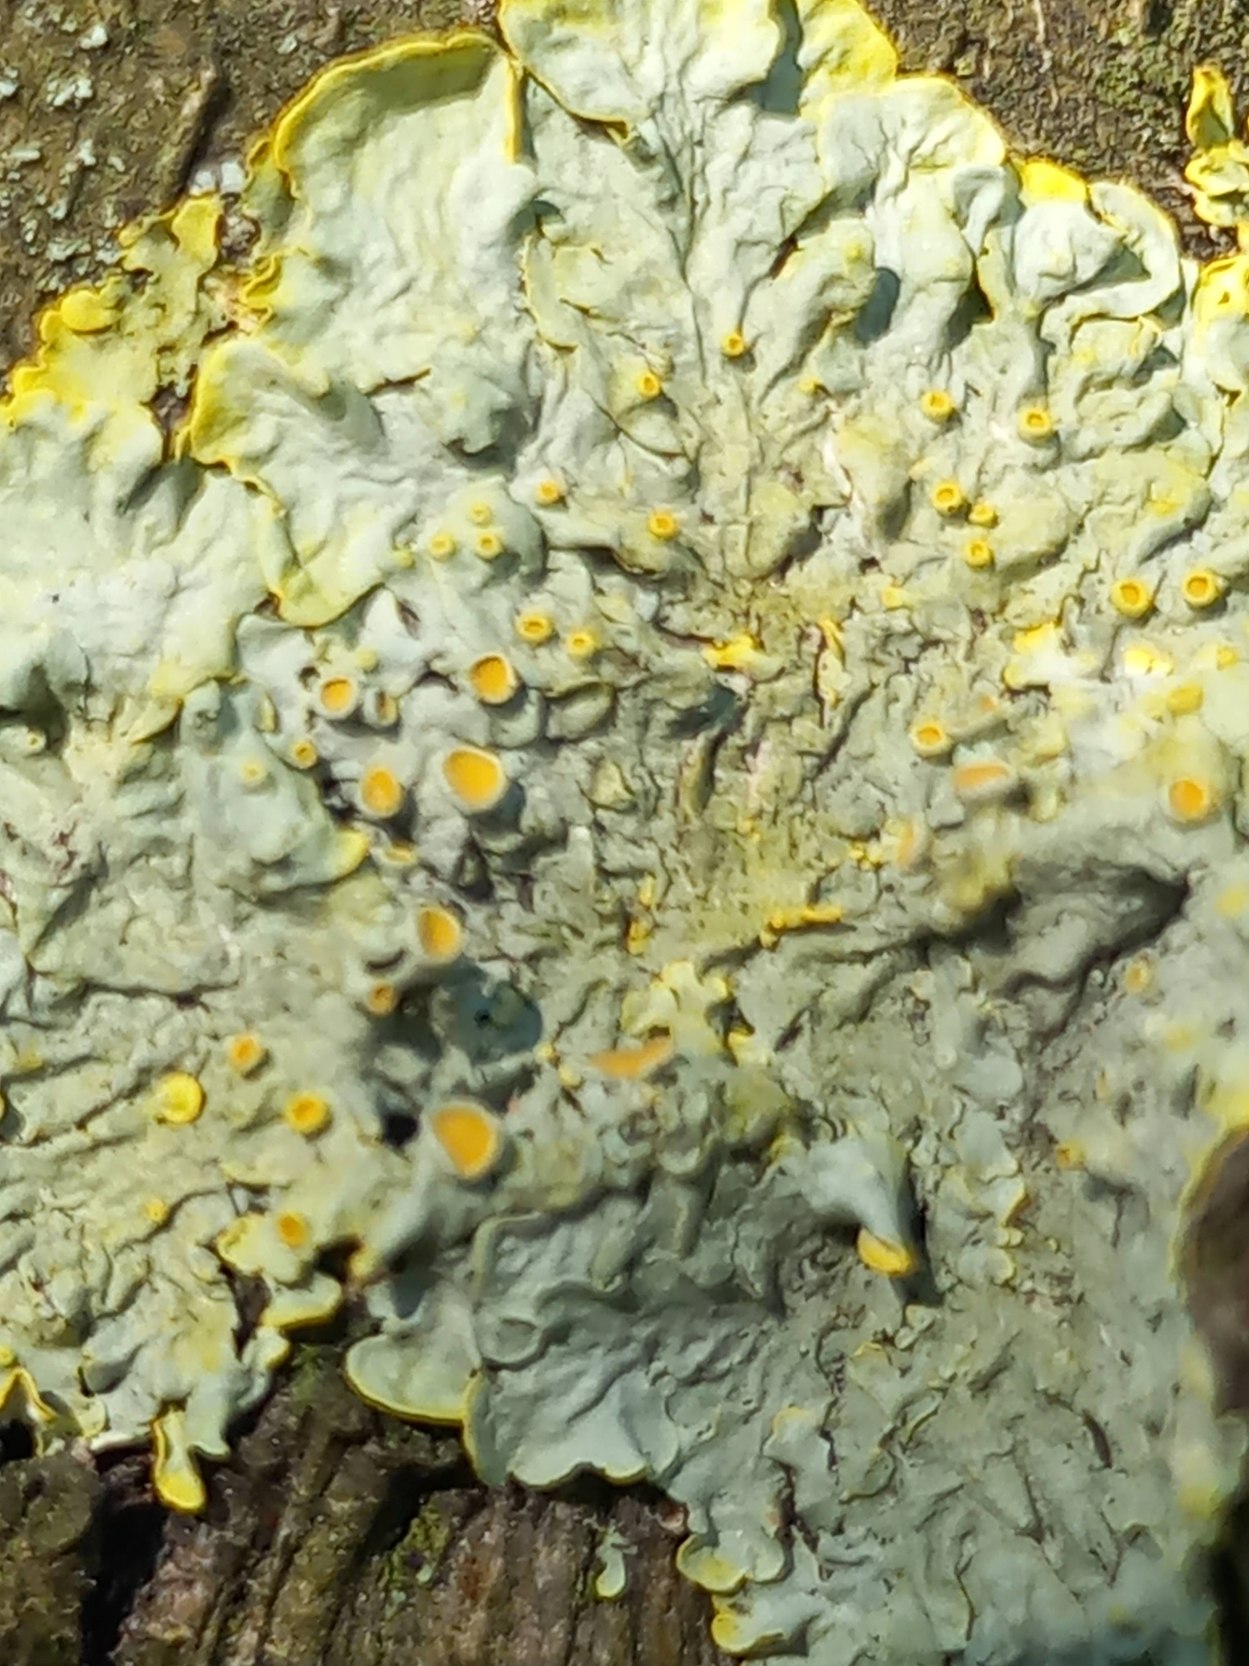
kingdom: Fungi
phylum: Ascomycota
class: Lecanoromycetes
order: Teloschistales
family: Teloschistaceae
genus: Xanthoria
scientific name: Xanthoria parietina
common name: Almindelig væggelav
